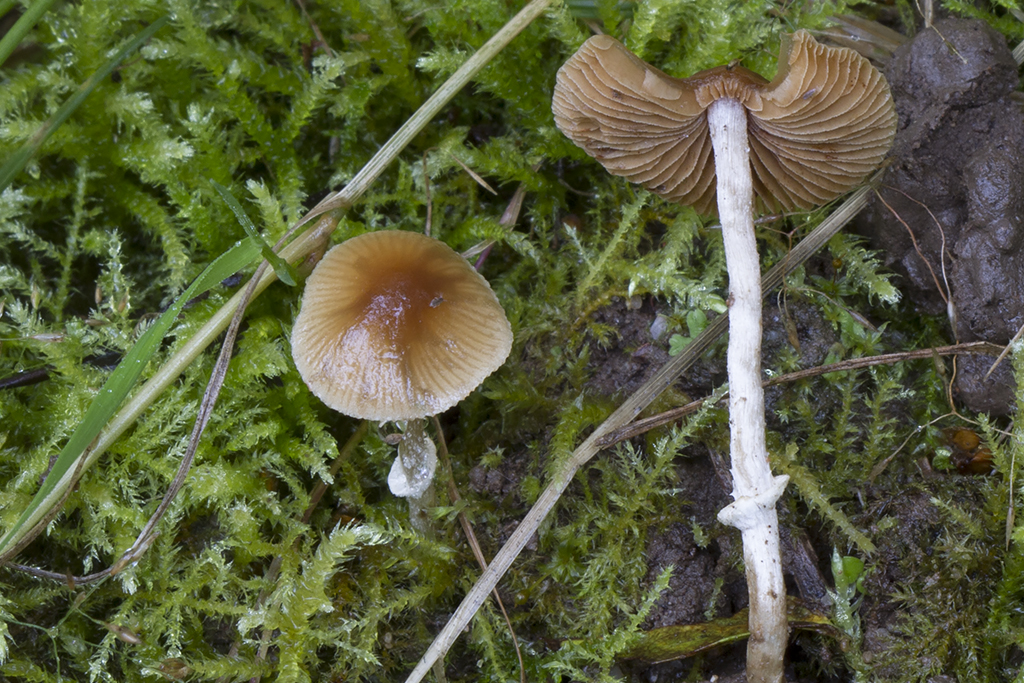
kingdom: Fungi
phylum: Basidiomycota
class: Agaricomycetes
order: Agaricales
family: Bolbitiaceae
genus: Conocybe
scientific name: Conocybe arrhenii
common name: ring-dansehat
